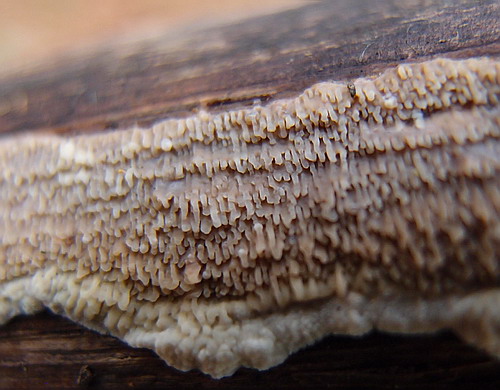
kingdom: Fungi
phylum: Basidiomycota
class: Agaricomycetes
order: Polyporales
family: Meruliaceae
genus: Phlebia
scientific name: Phlebia rufa
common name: ege-åresvamp
